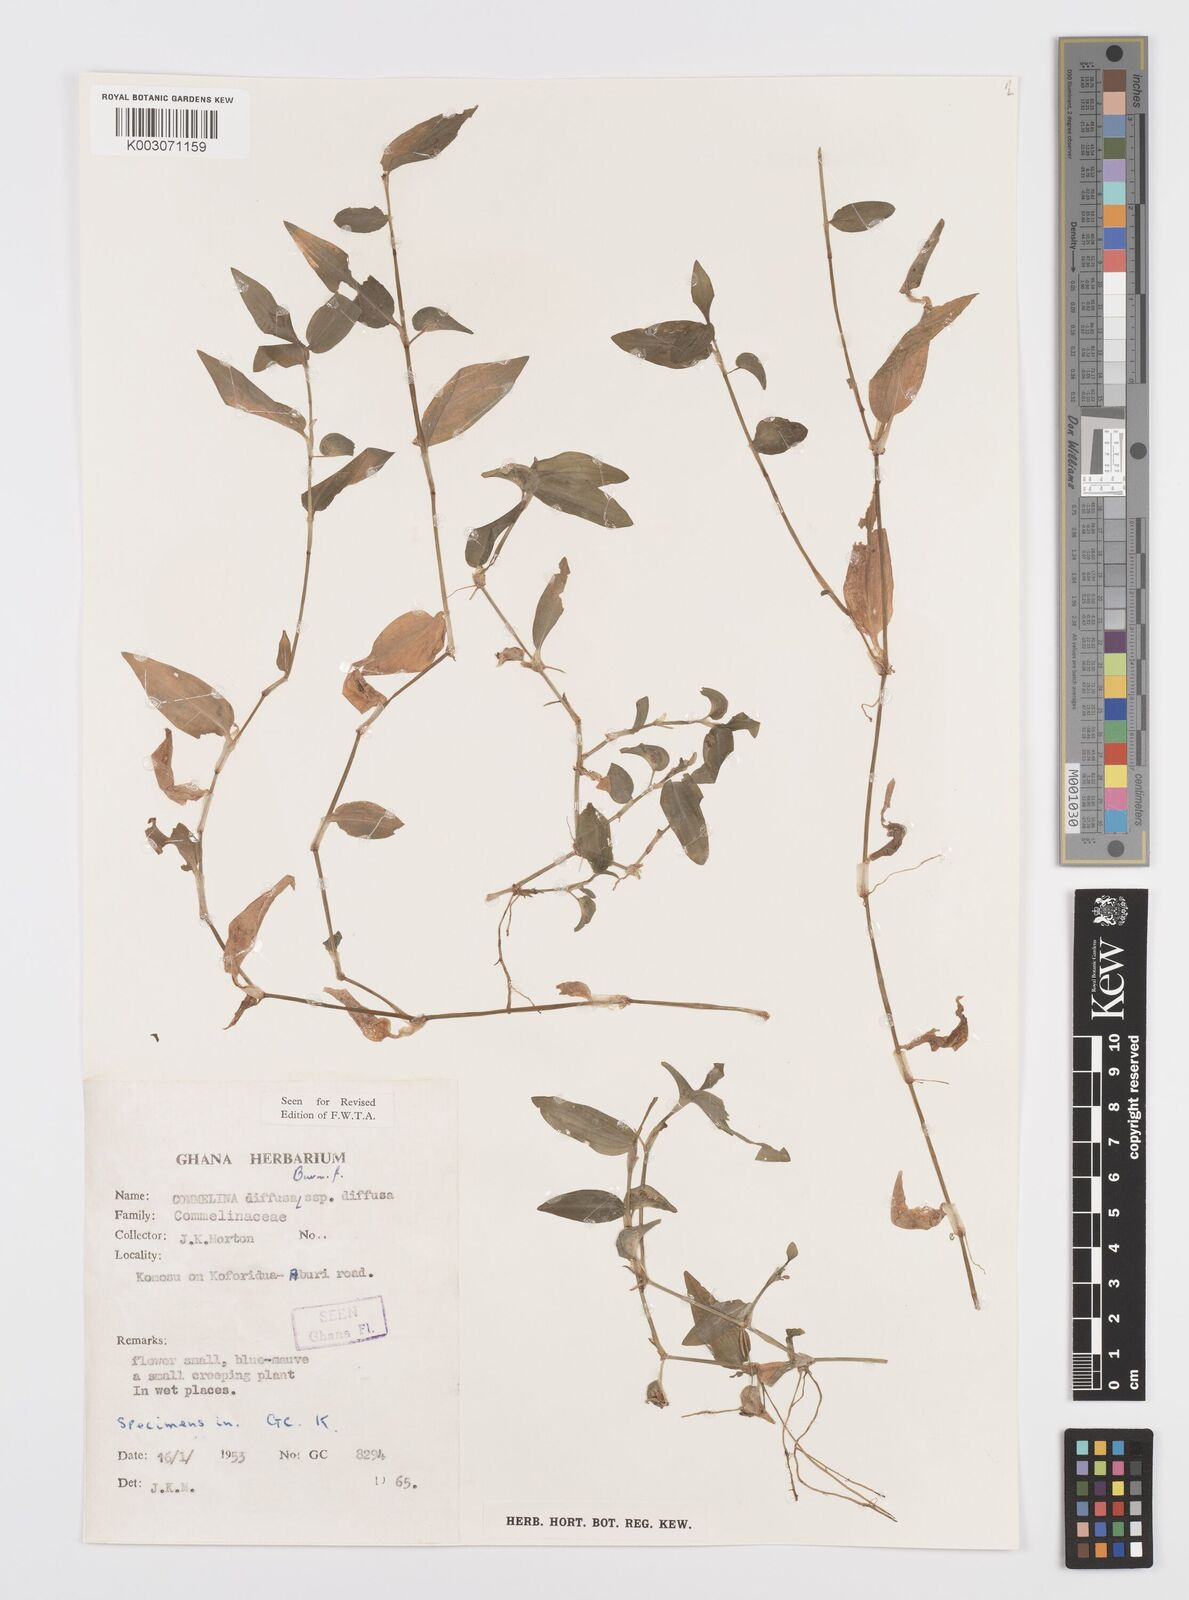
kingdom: Plantae
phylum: Tracheophyta
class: Liliopsida
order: Commelinales
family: Commelinaceae
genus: Commelina
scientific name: Commelina diffusa
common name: Climbing dayflower
